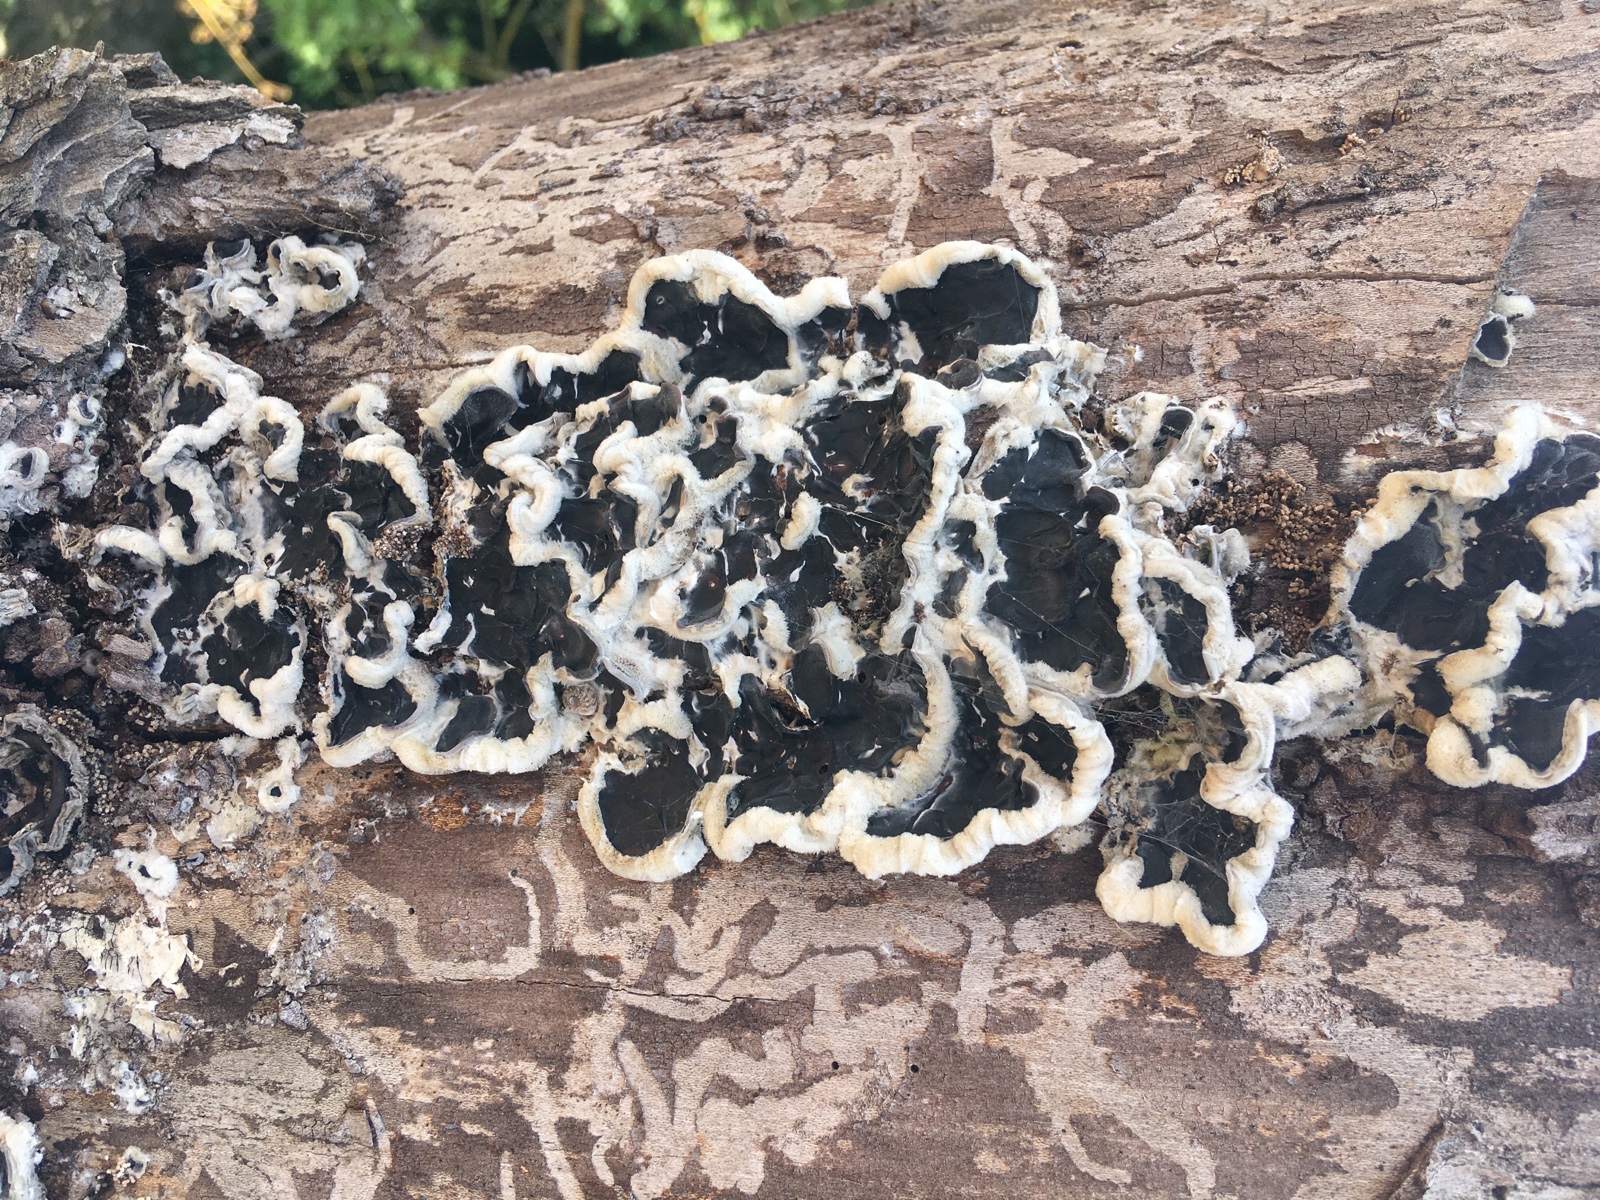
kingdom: Fungi
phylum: Basidiomycota
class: Agaricomycetes
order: Auriculariales
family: Auriculariaceae
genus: Auricularia
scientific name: Auricularia mesenterica
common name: håret judasøre
